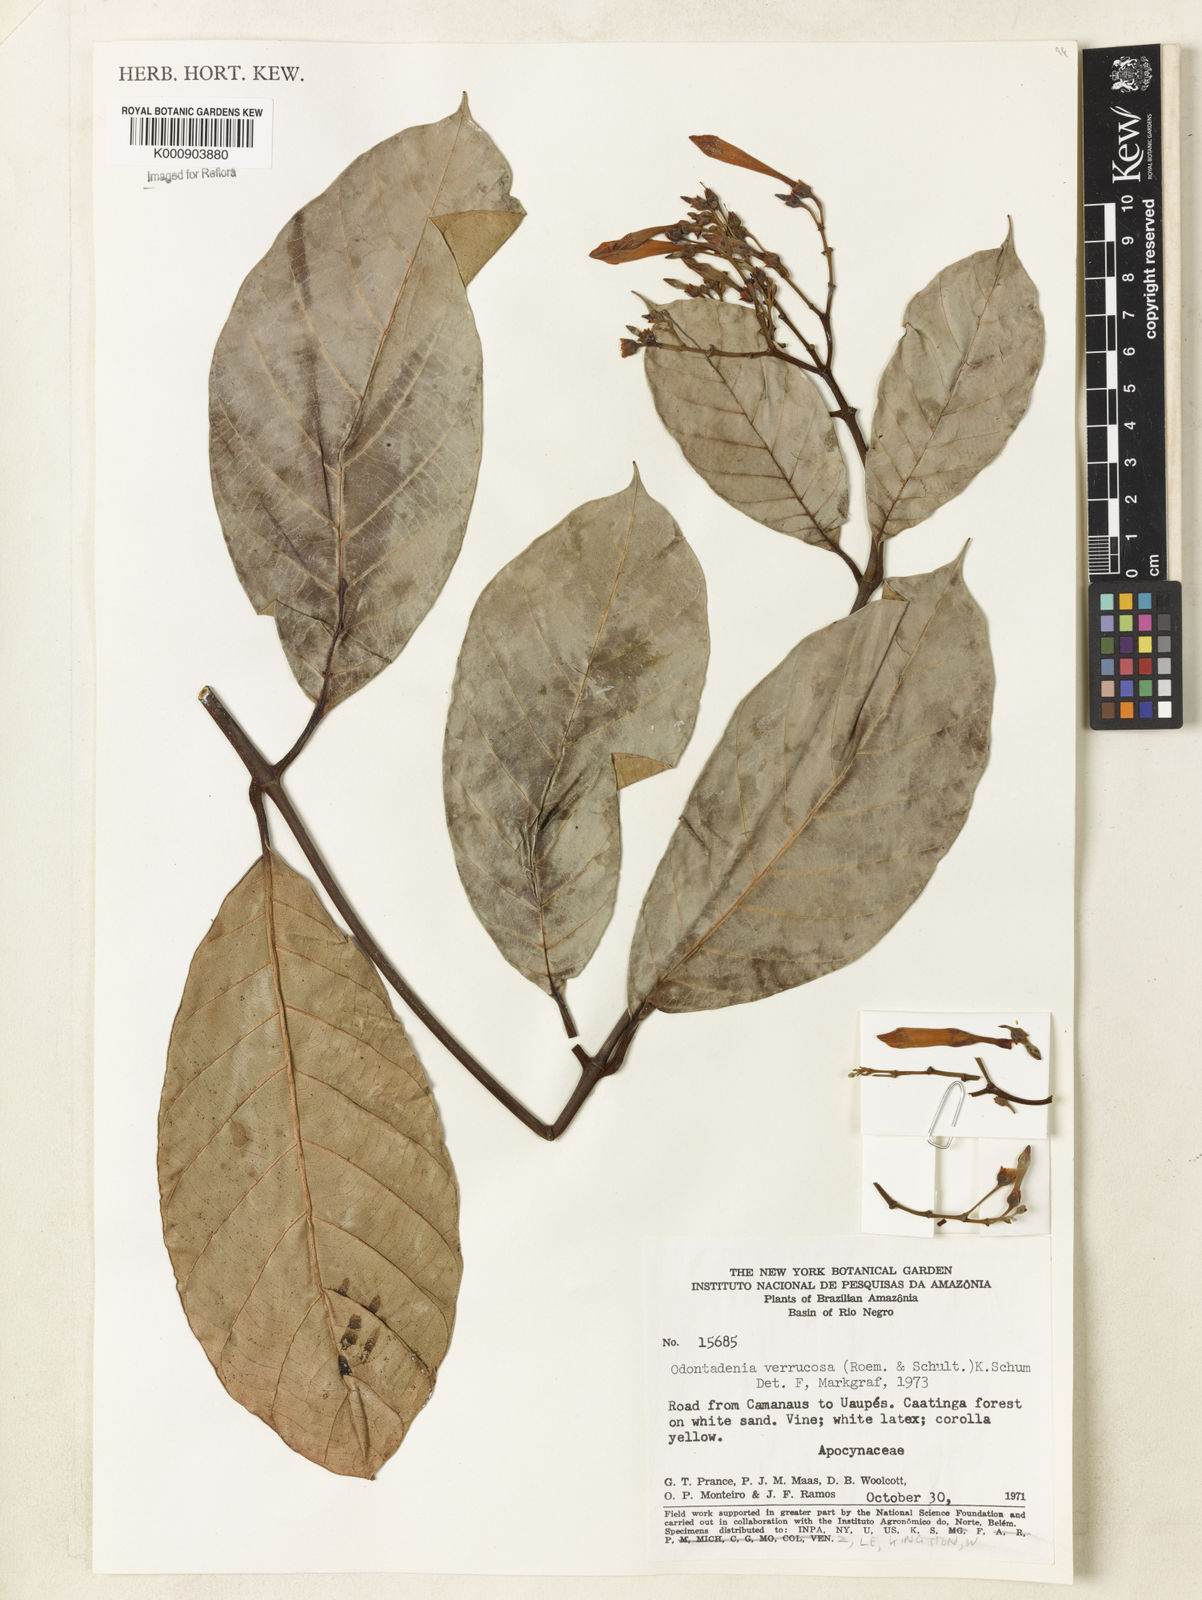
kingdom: Plantae
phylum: Tracheophyta
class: Magnoliopsida
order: Gentianales
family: Apocynaceae
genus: Odontadenia
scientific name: Odontadenia verrucosa
